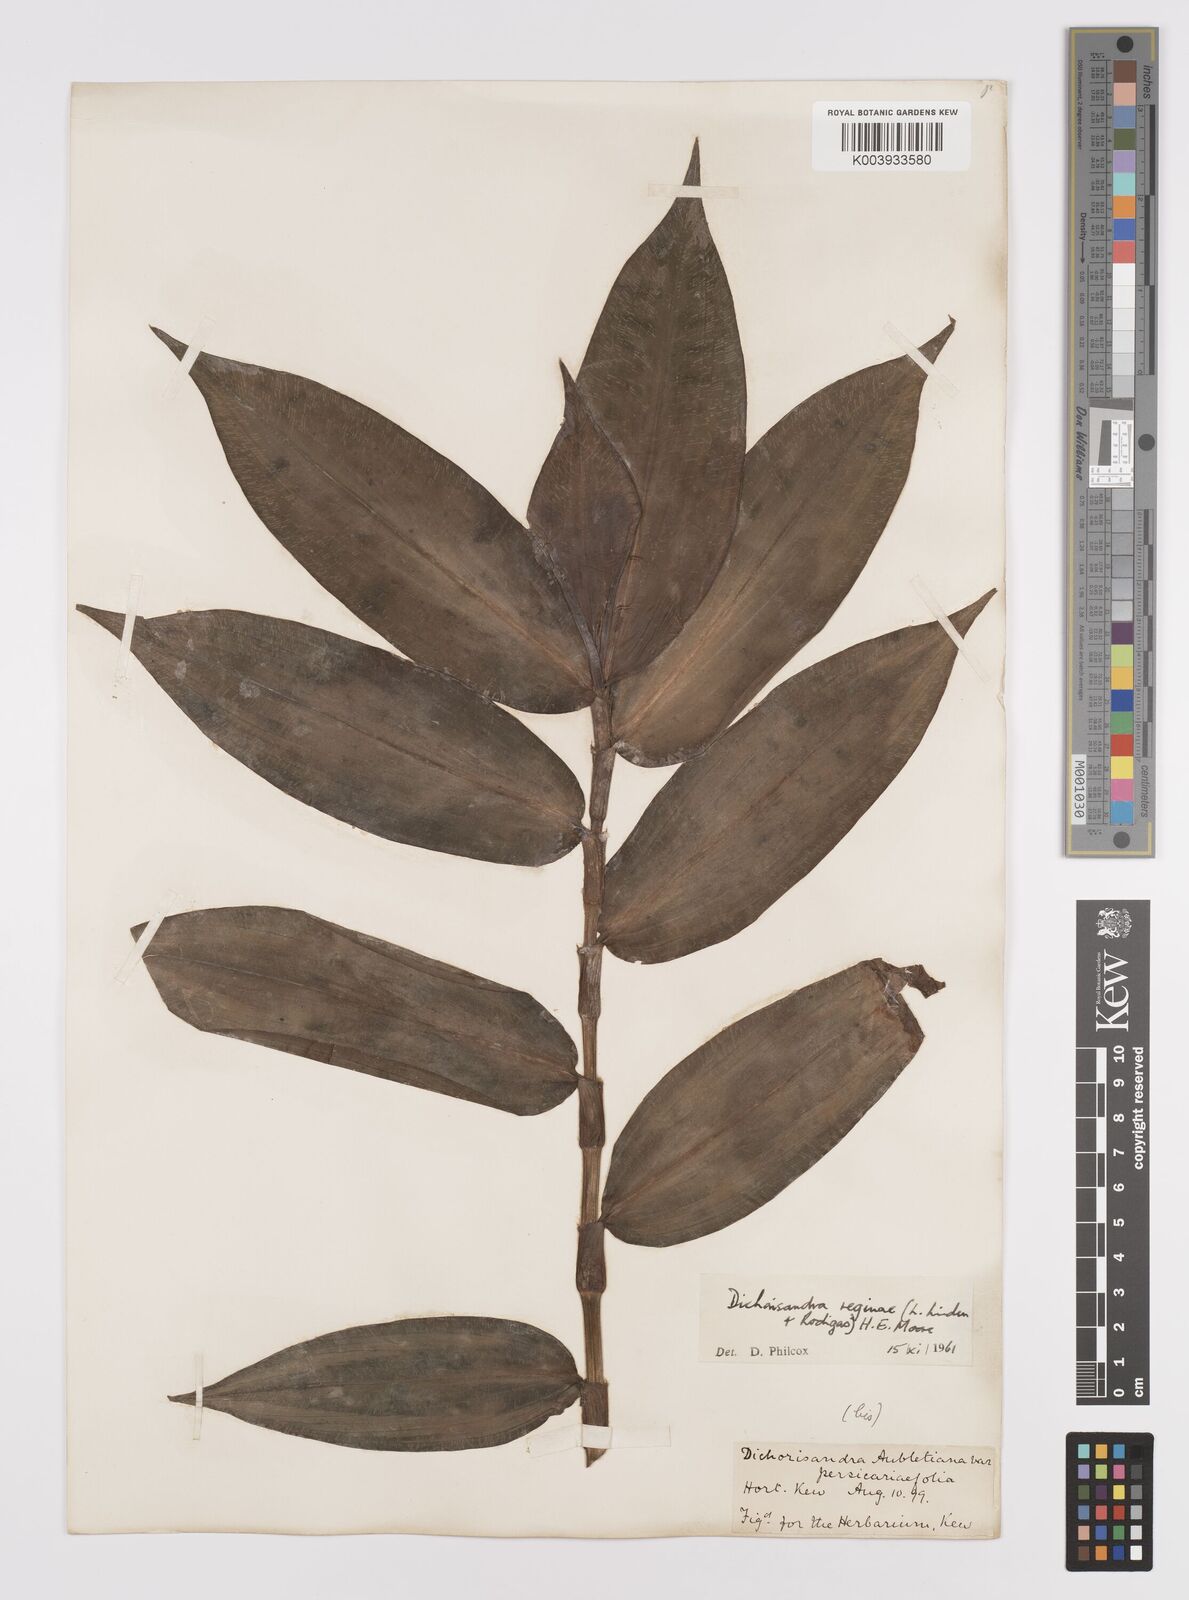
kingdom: Plantae
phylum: Tracheophyta
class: Liliopsida
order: Commelinales
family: Commelinaceae
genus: Dichorisandra
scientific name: Dichorisandra musaica
